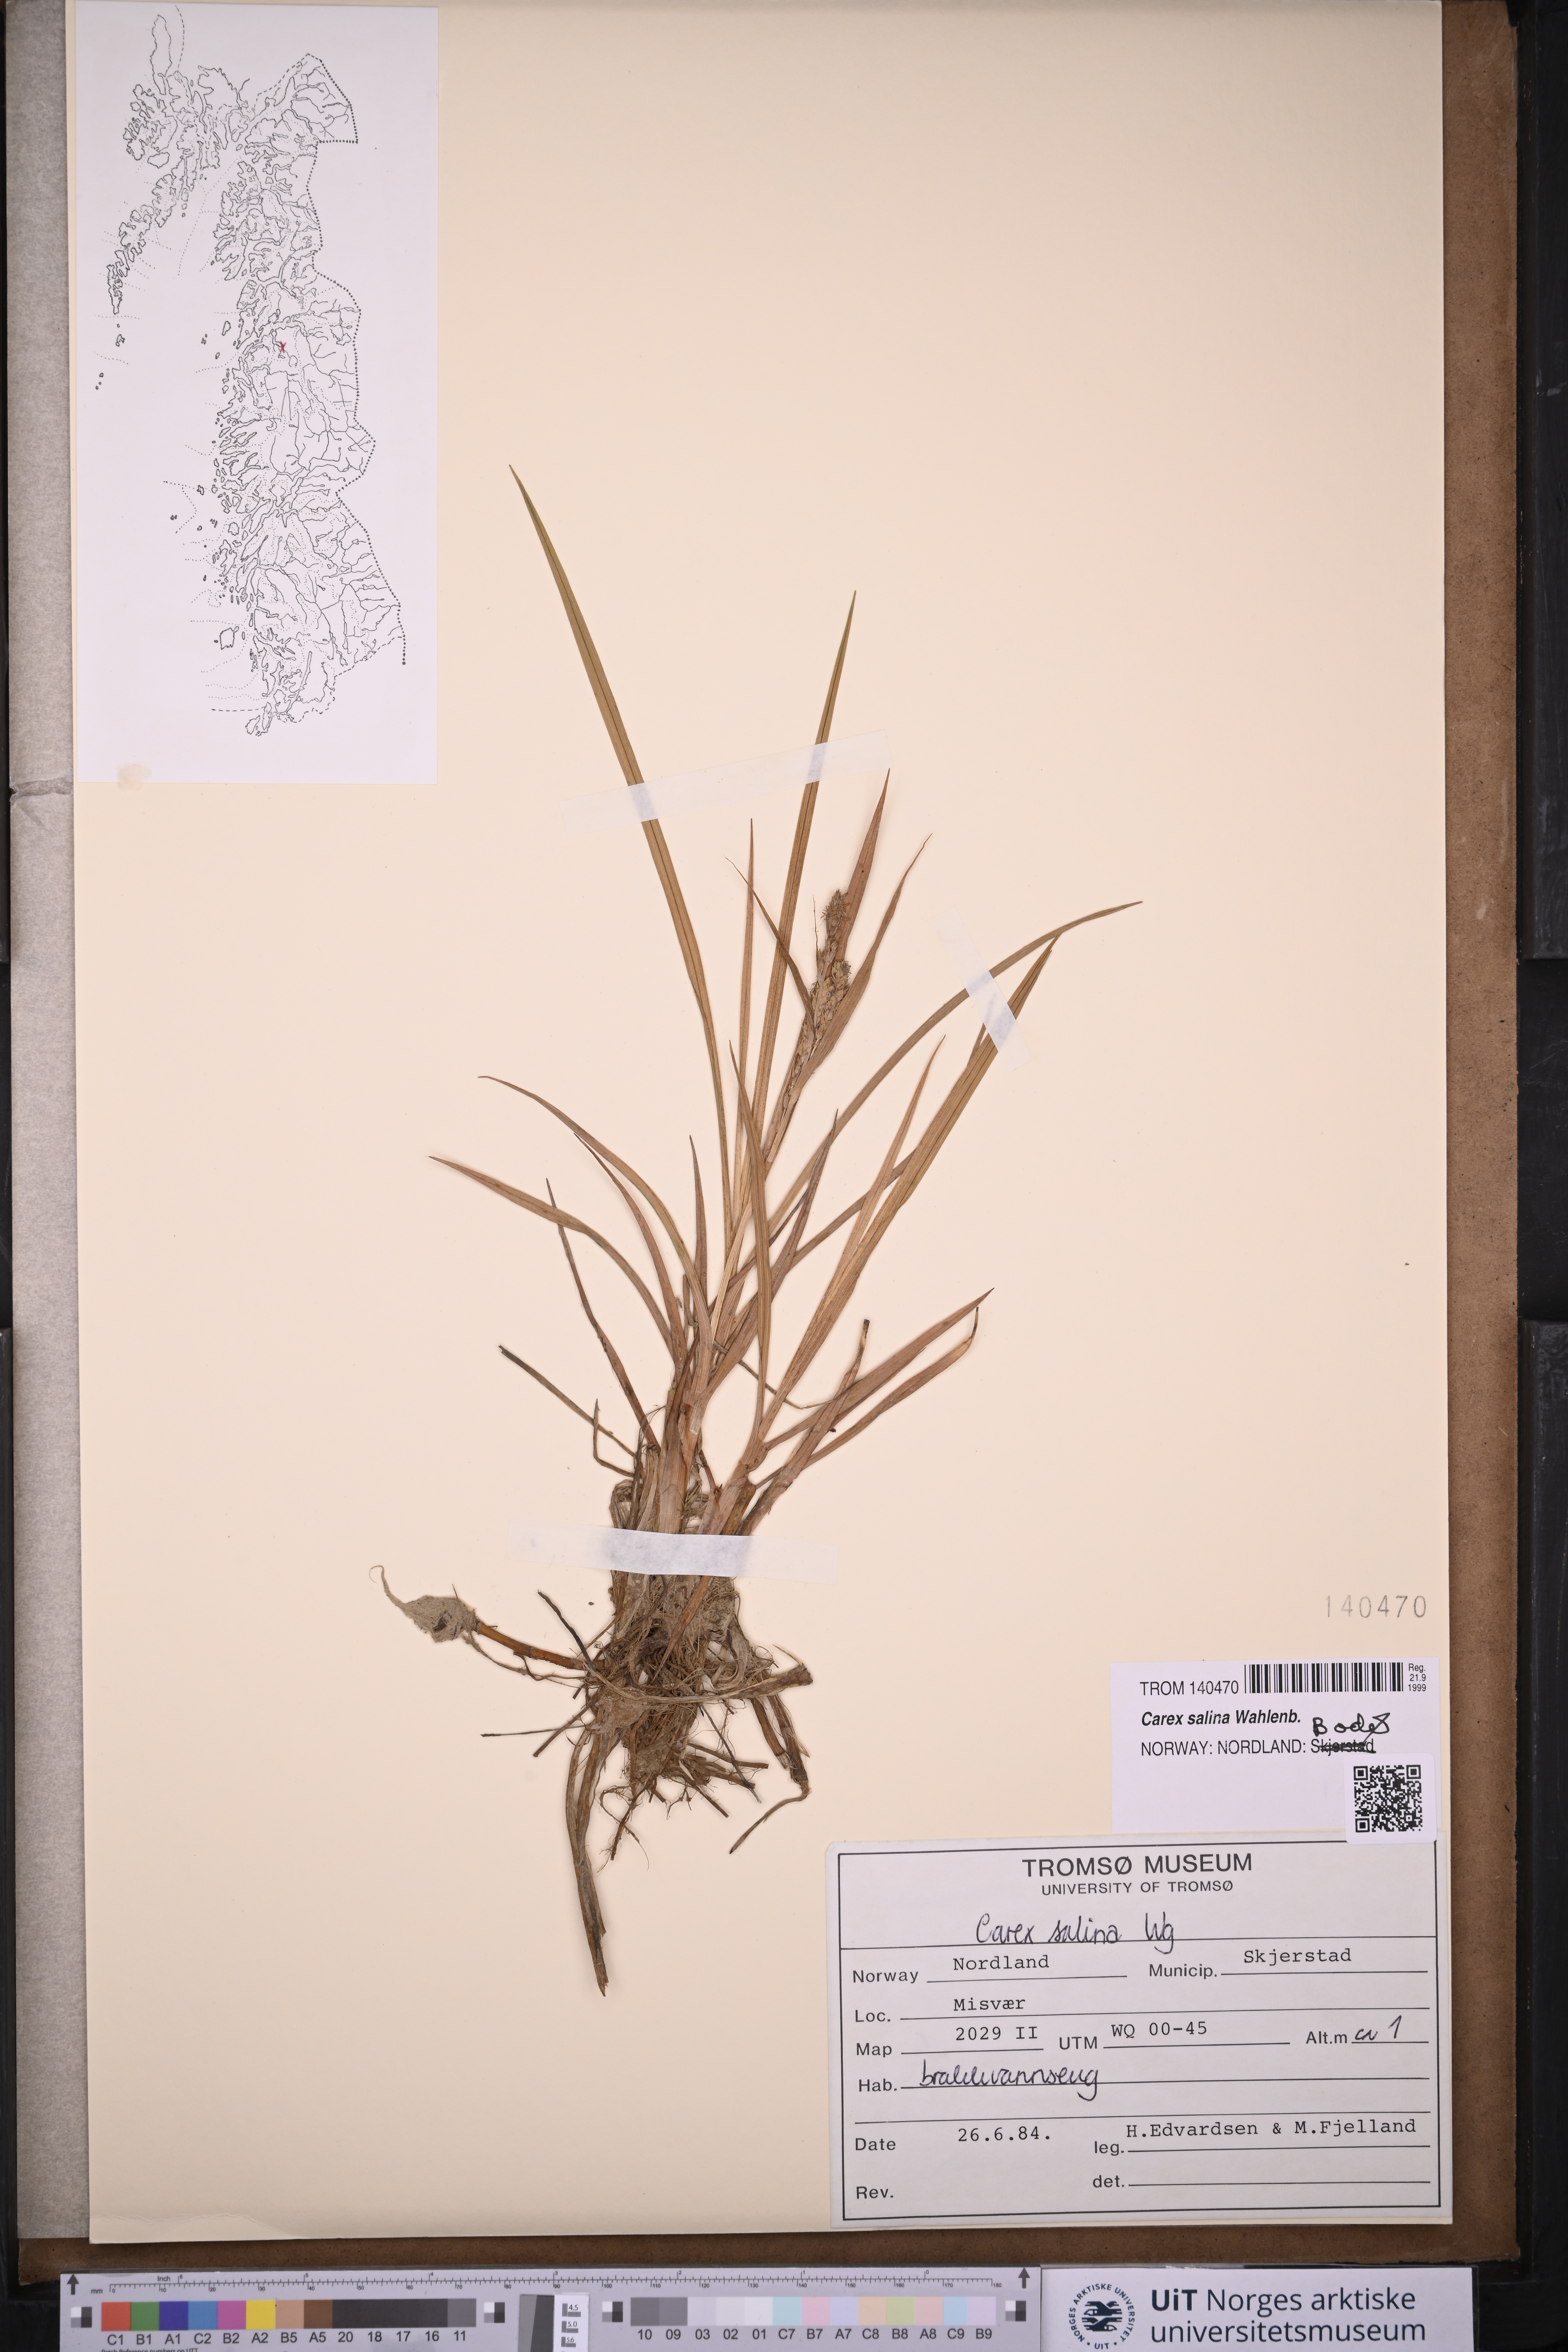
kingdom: Plantae
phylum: Tracheophyta
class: Liliopsida
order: Poales
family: Cyperaceae
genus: Carex
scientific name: Carex salina
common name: Saltmarsh sedge
